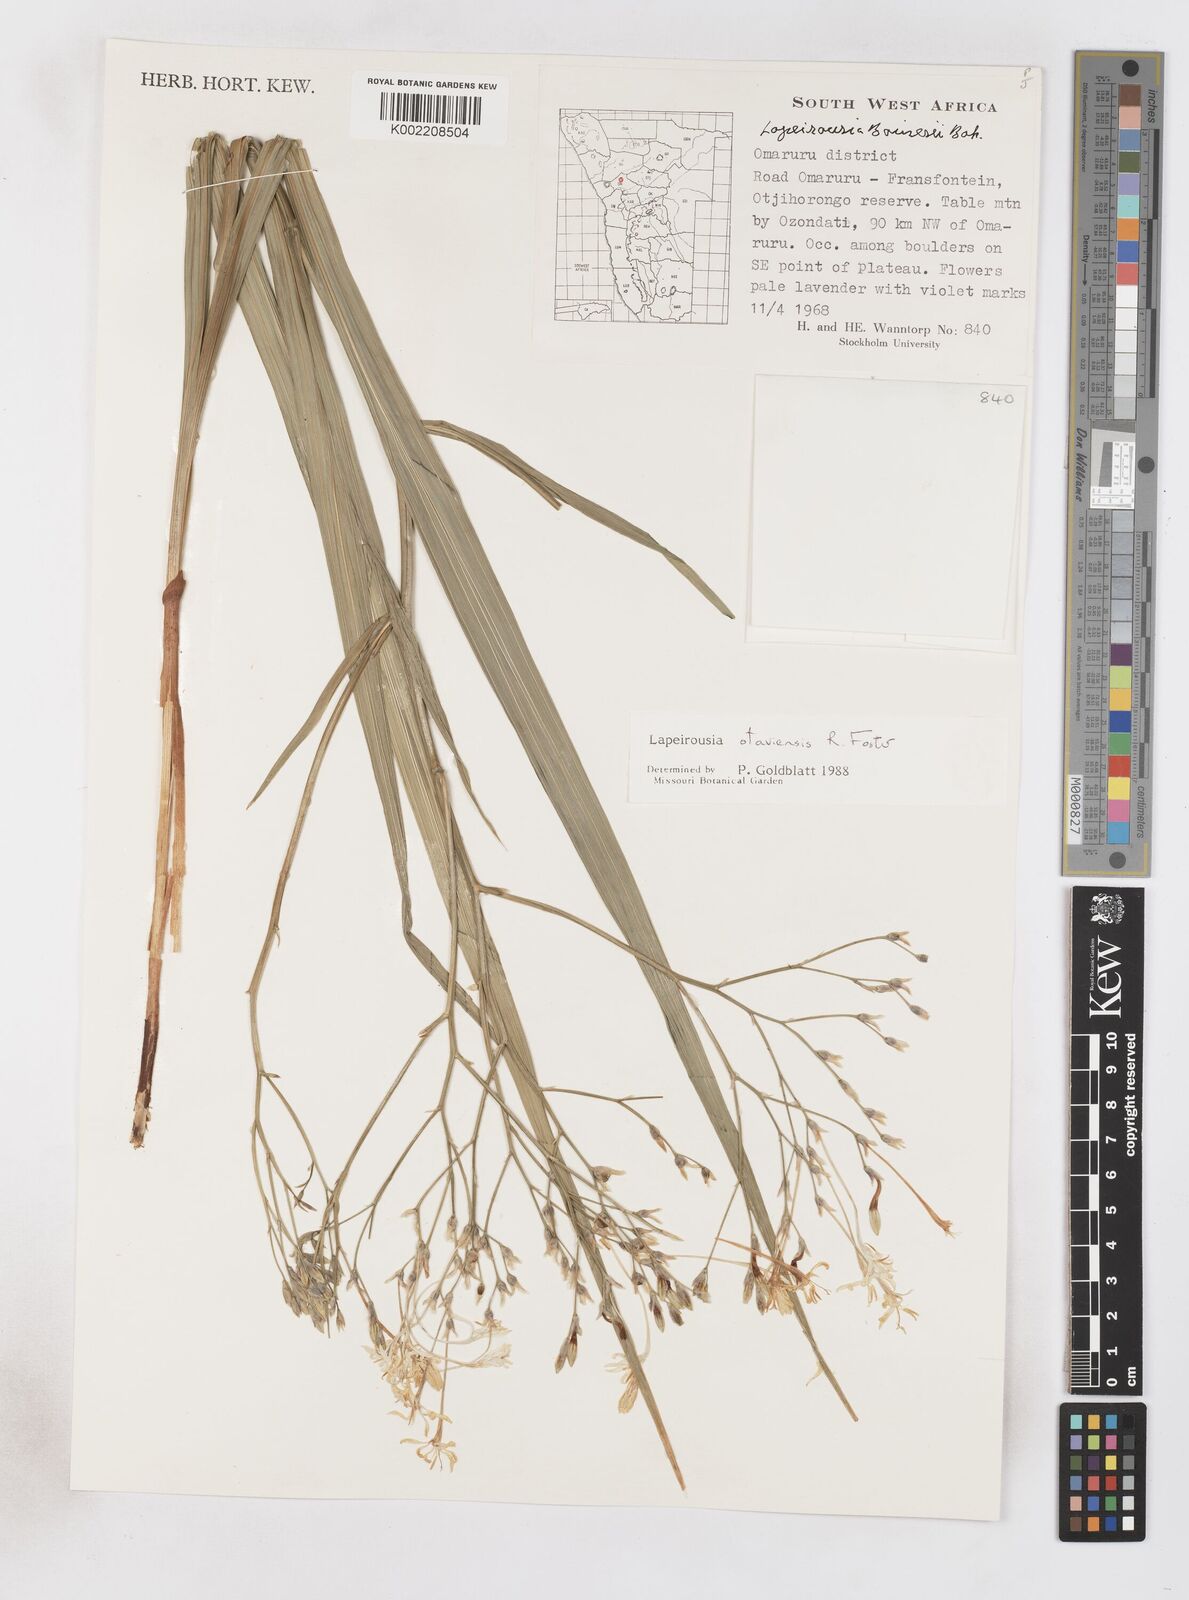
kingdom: Plantae
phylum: Tracheophyta
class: Liliopsida
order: Asparagales
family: Iridaceae
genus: Afrosolen
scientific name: Afrosolen otaviensis
